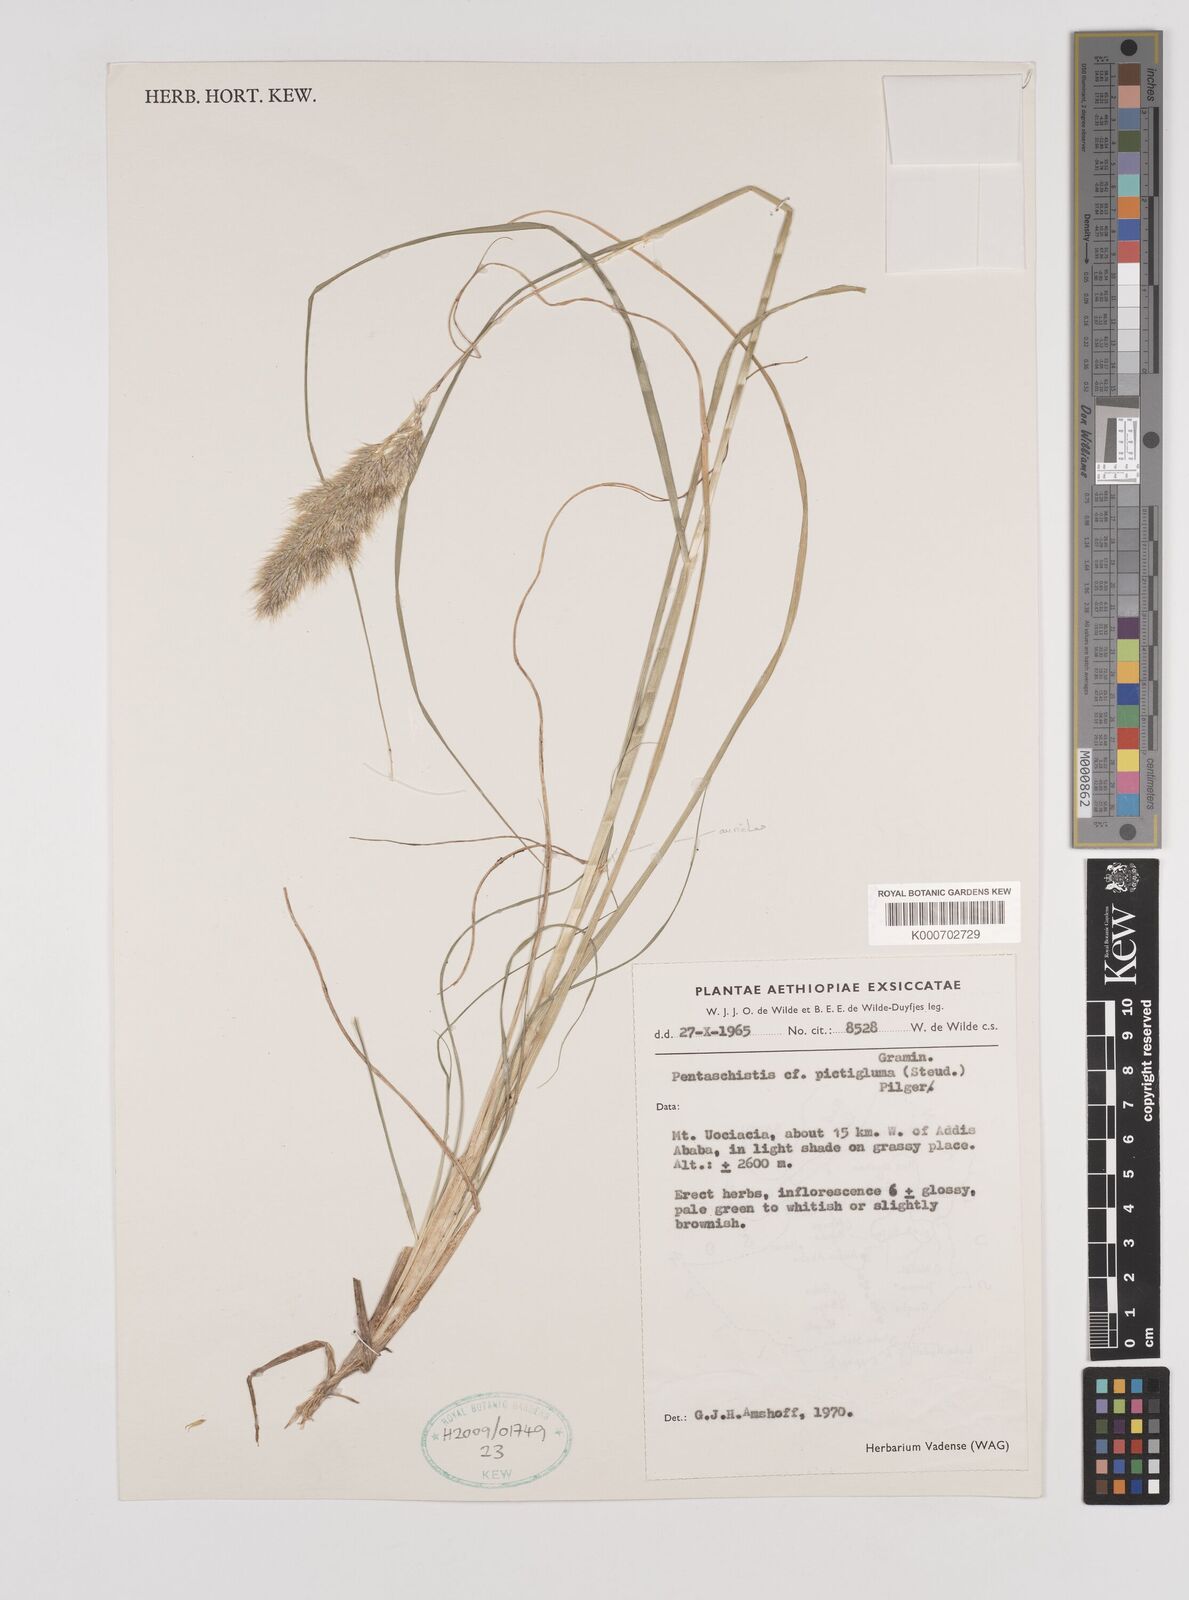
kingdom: Plantae
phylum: Tracheophyta
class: Liliopsida
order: Poales
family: Poaceae
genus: Pentameris
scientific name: Pentameris pictigluma
